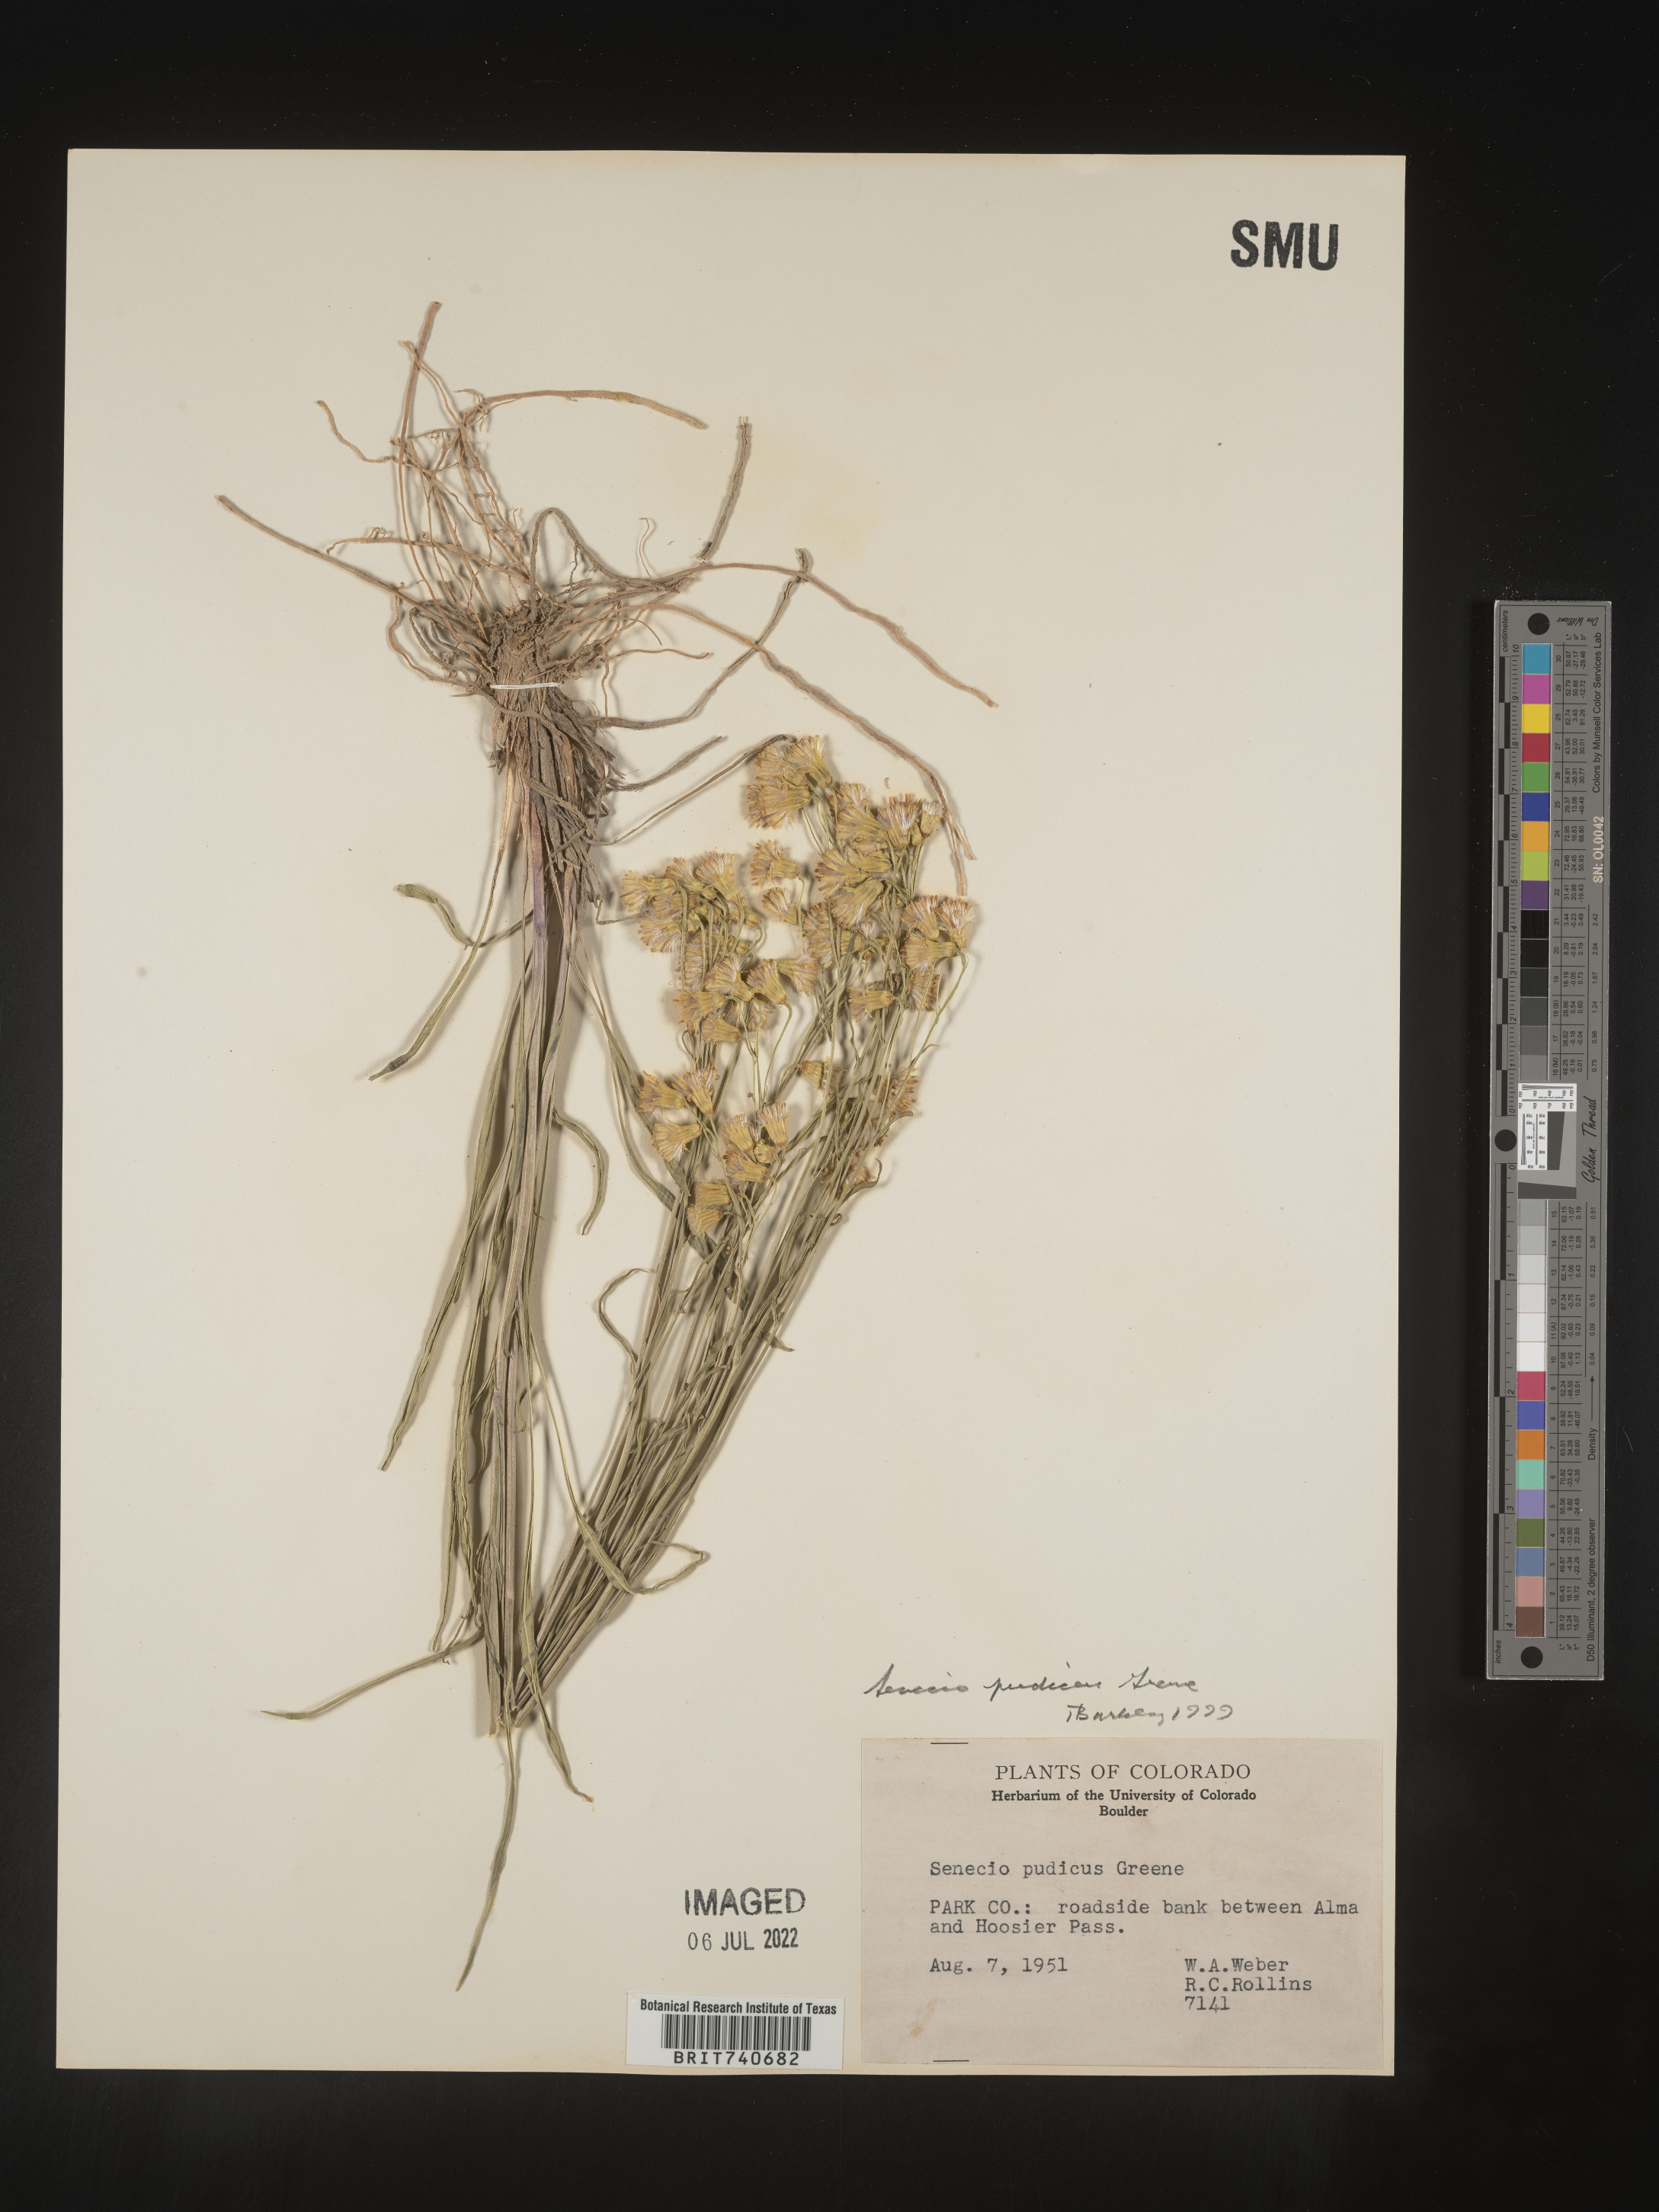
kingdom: Plantae
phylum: Tracheophyta
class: Magnoliopsida
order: Asterales
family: Asteraceae
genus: Senecio
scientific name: Senecio pudicus
